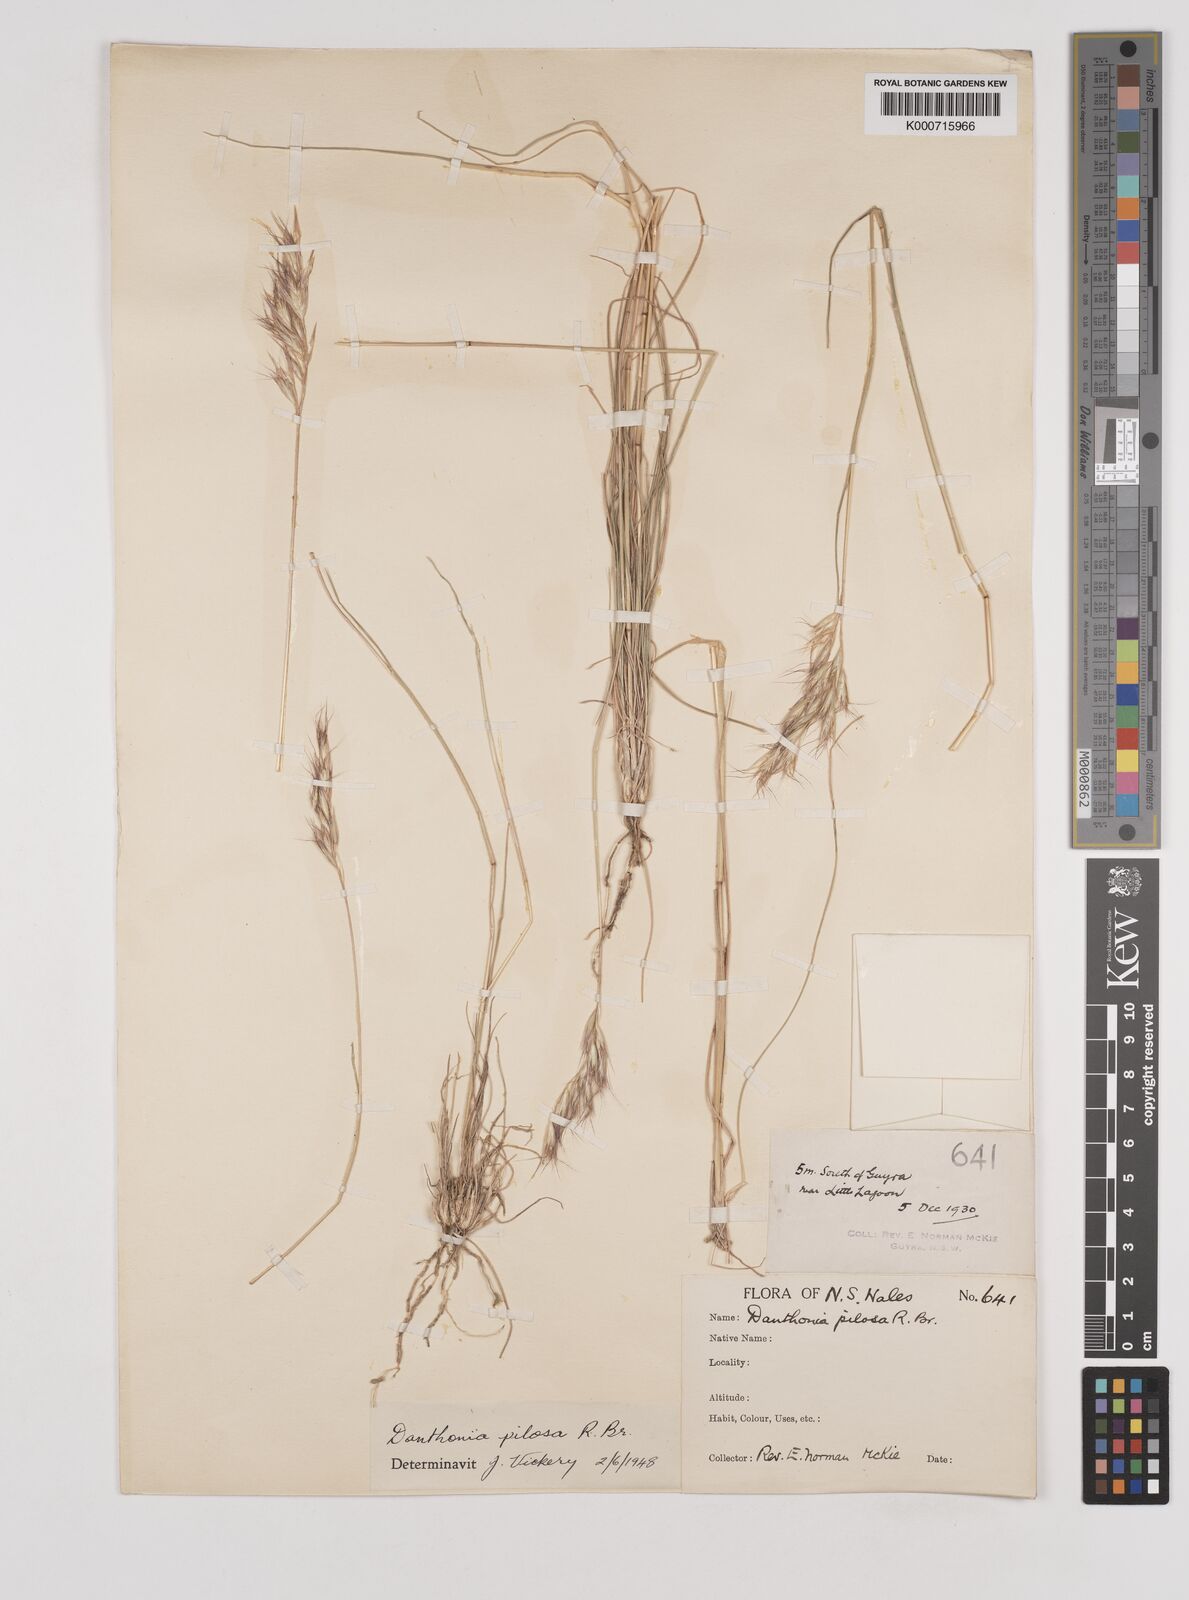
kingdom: Plantae
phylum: Tracheophyta
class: Liliopsida
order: Poales
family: Poaceae
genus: Rytidosperma
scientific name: Rytidosperma pilosum
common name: Hairy wallaby grass
